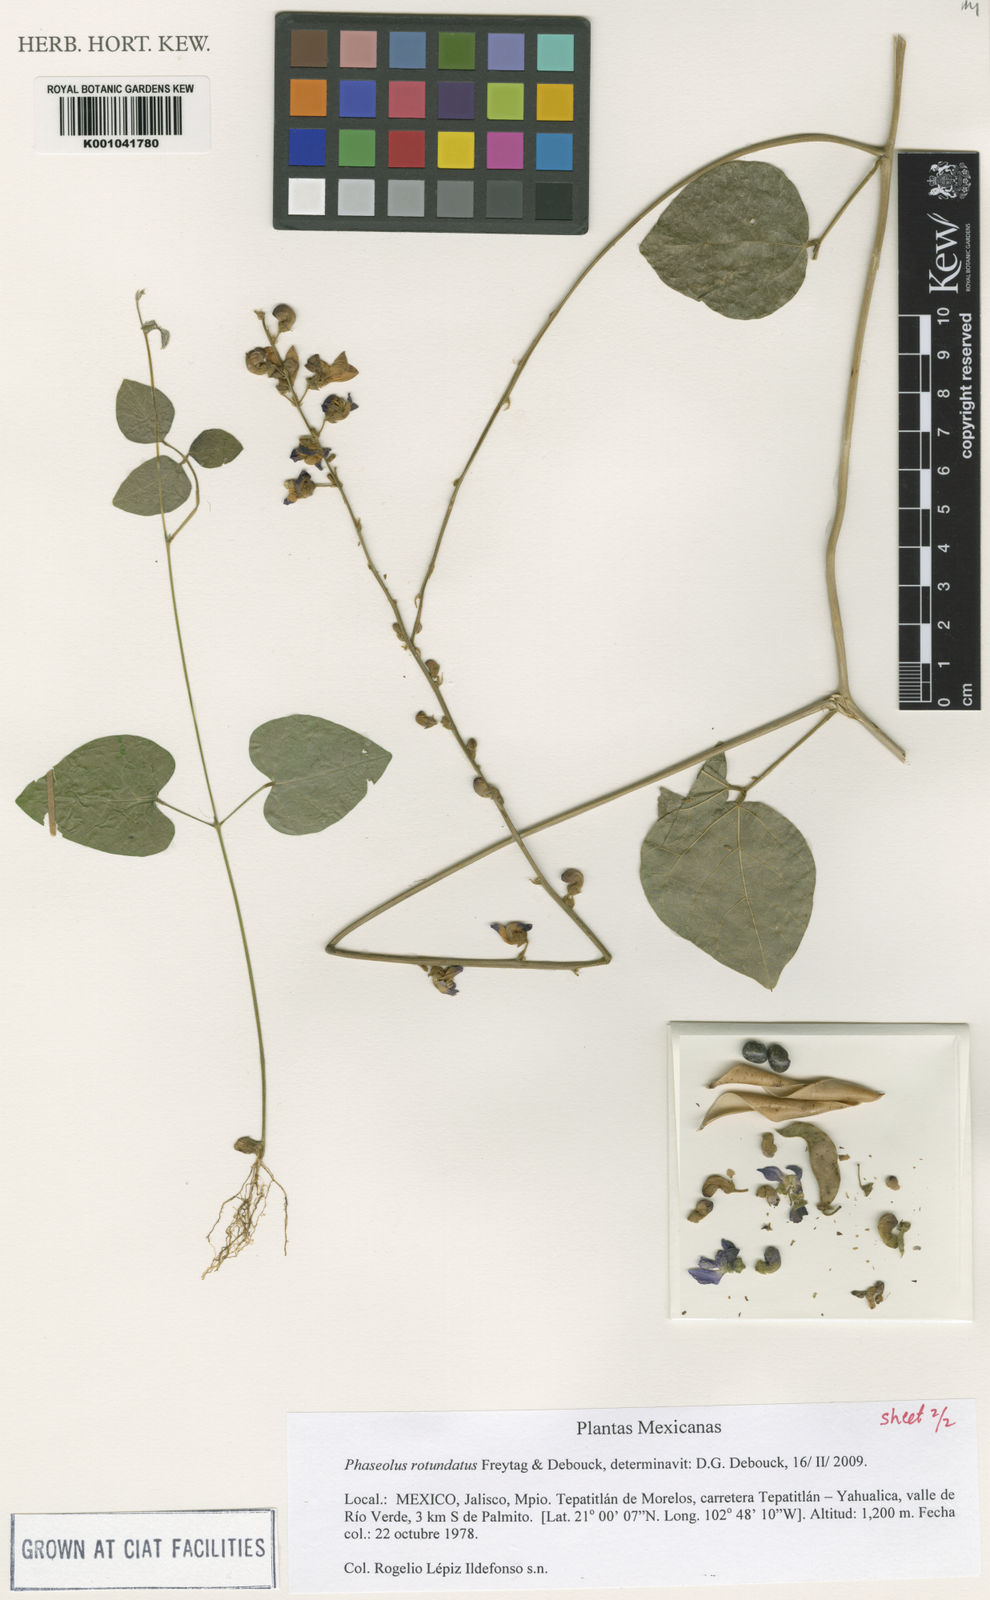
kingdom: Plantae
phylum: Tracheophyta
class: Magnoliopsida
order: Fabales
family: Fabaceae
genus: Phaseolus
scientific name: Phaseolus rotundatus
